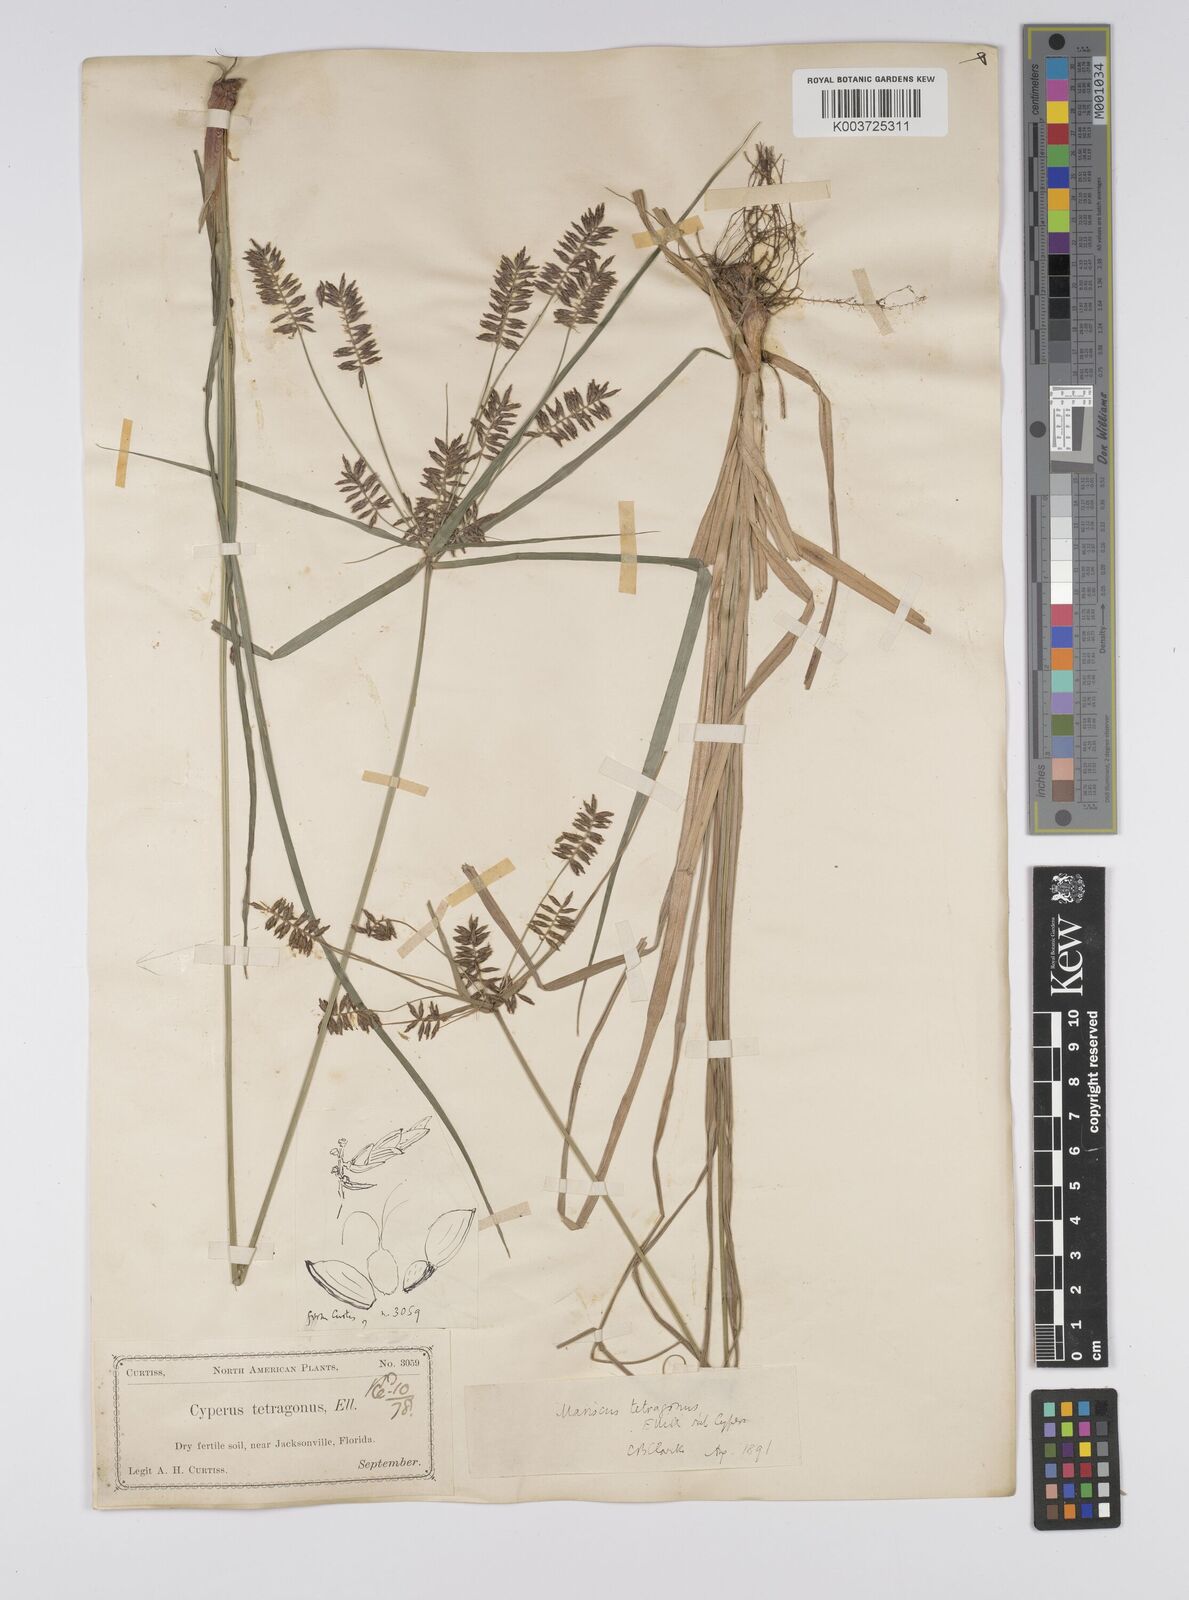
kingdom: Plantae
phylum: Tracheophyta
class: Liliopsida
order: Poales
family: Cyperaceae
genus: Cyperus
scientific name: Cyperus tetragonus
